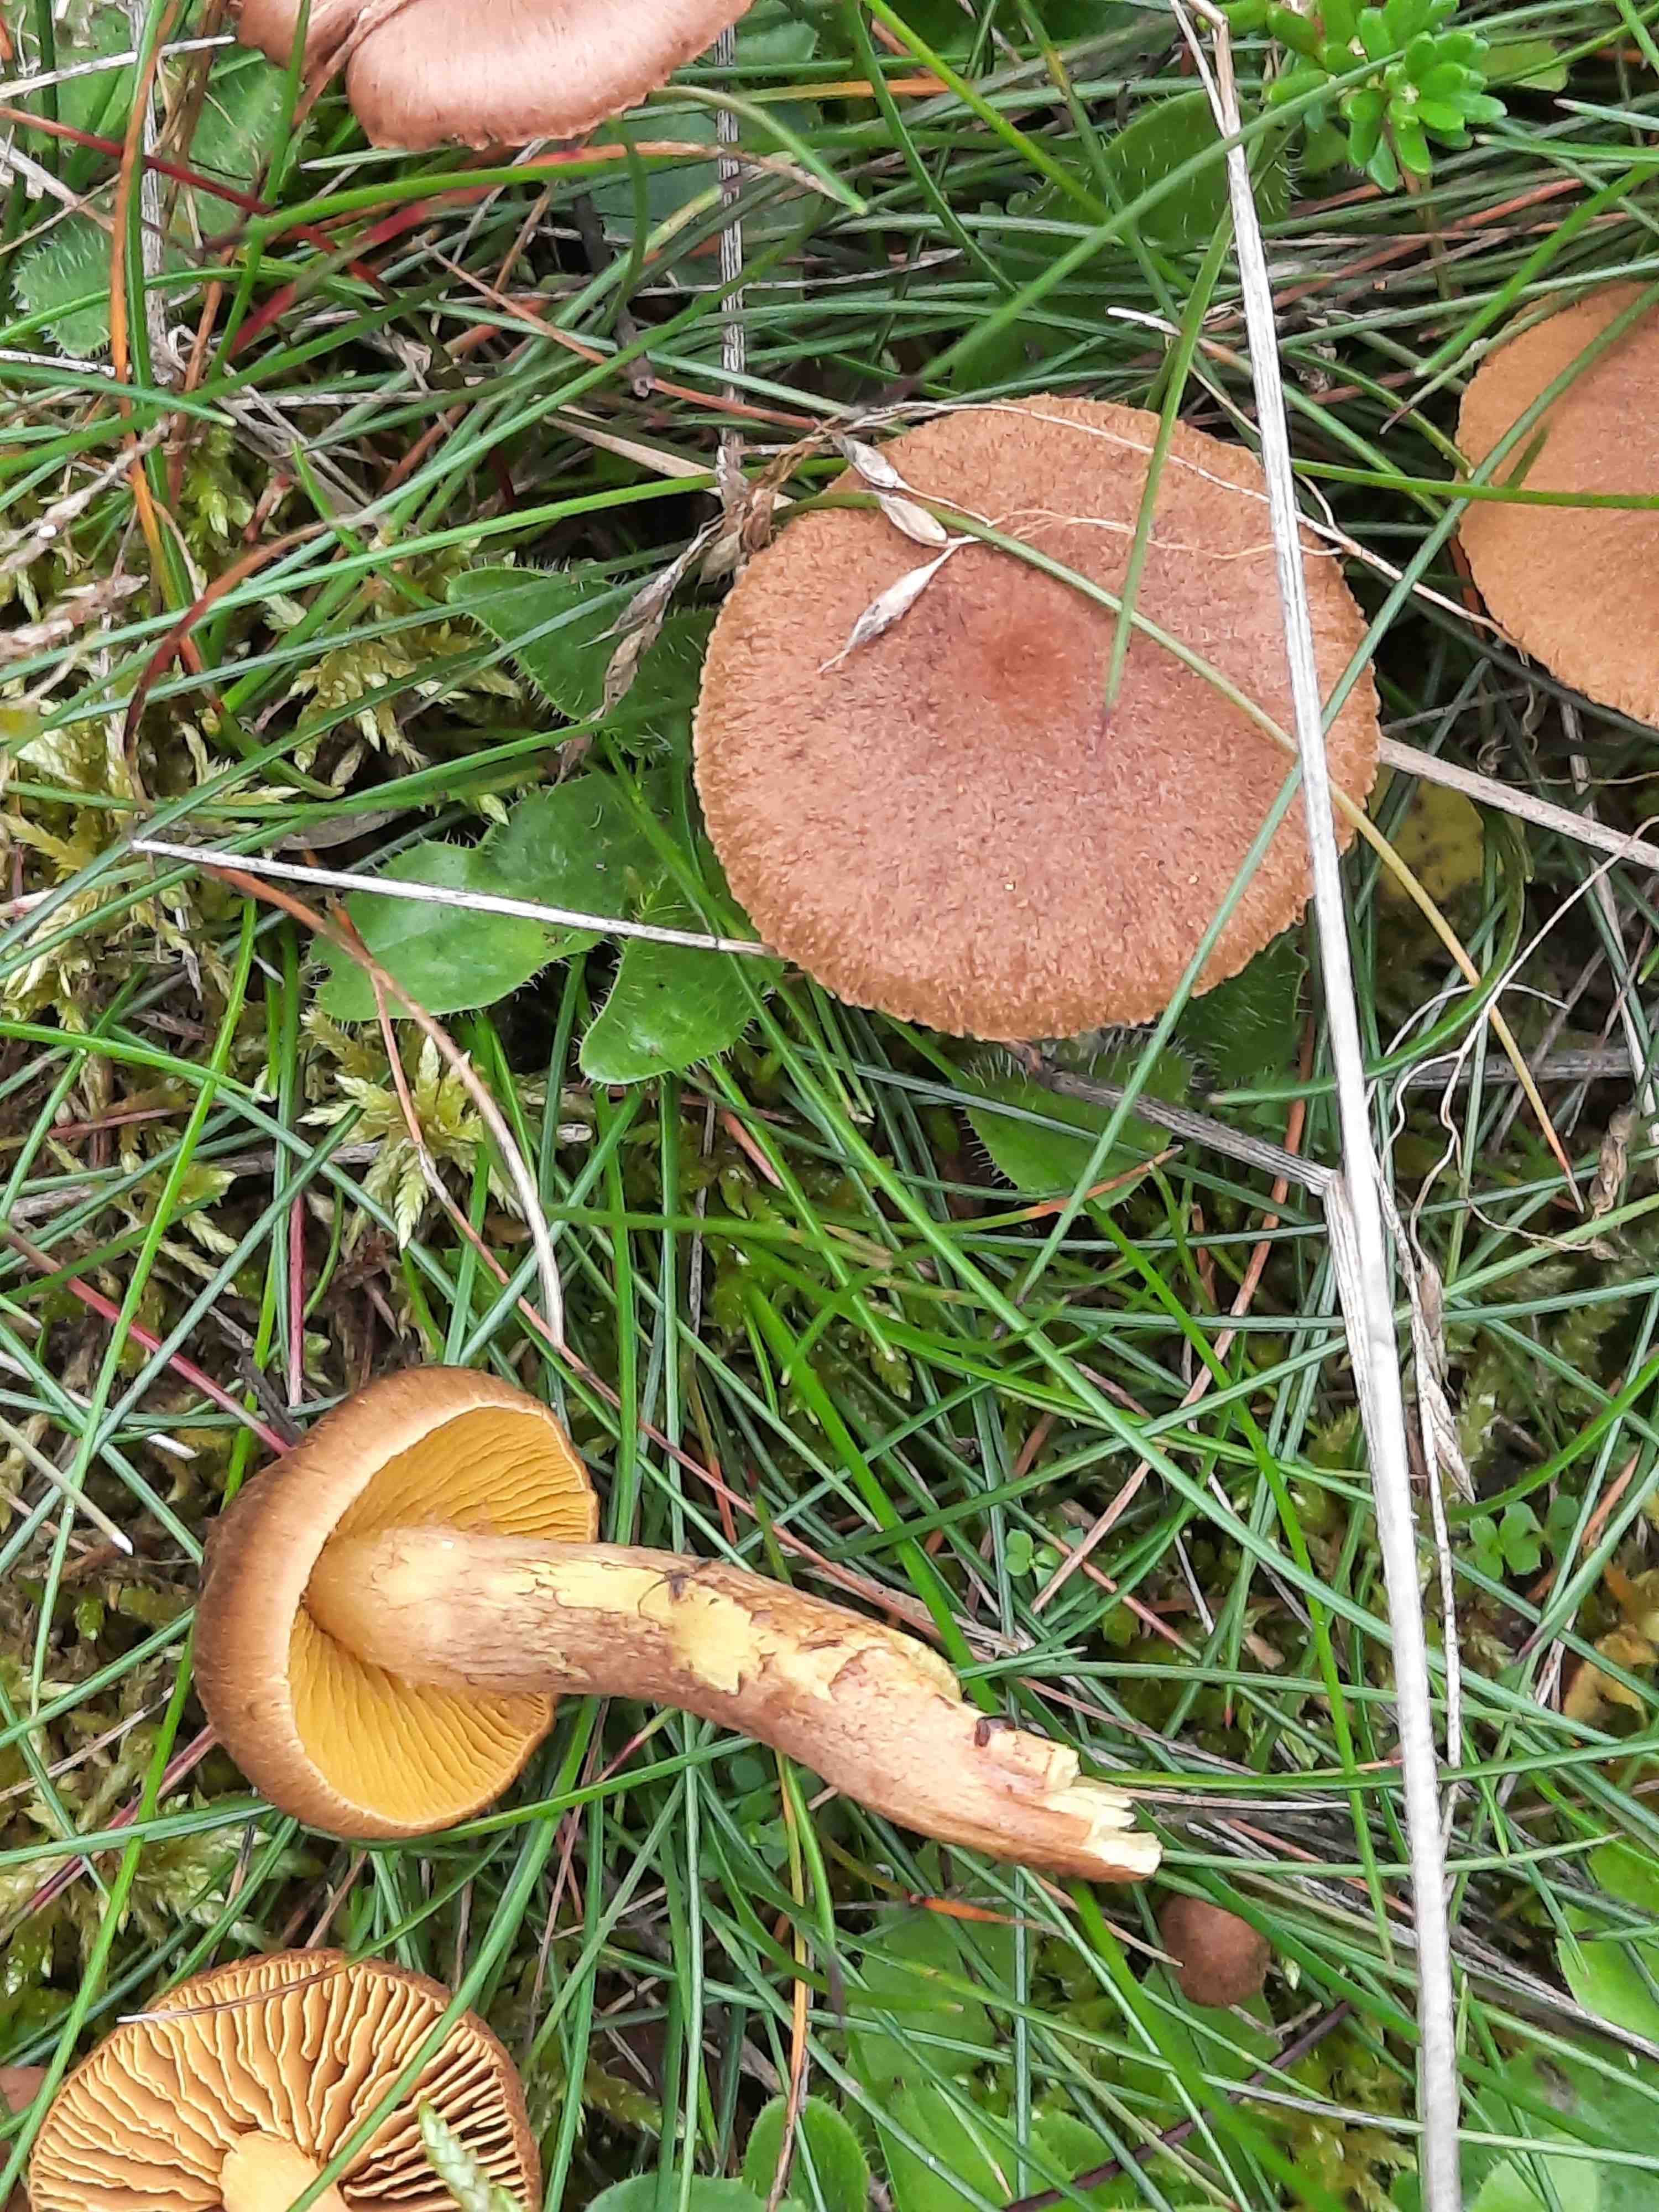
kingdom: Fungi
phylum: Basidiomycota
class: Agaricomycetes
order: Agaricales
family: Cortinariaceae
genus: Cortinarius
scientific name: Cortinarius
